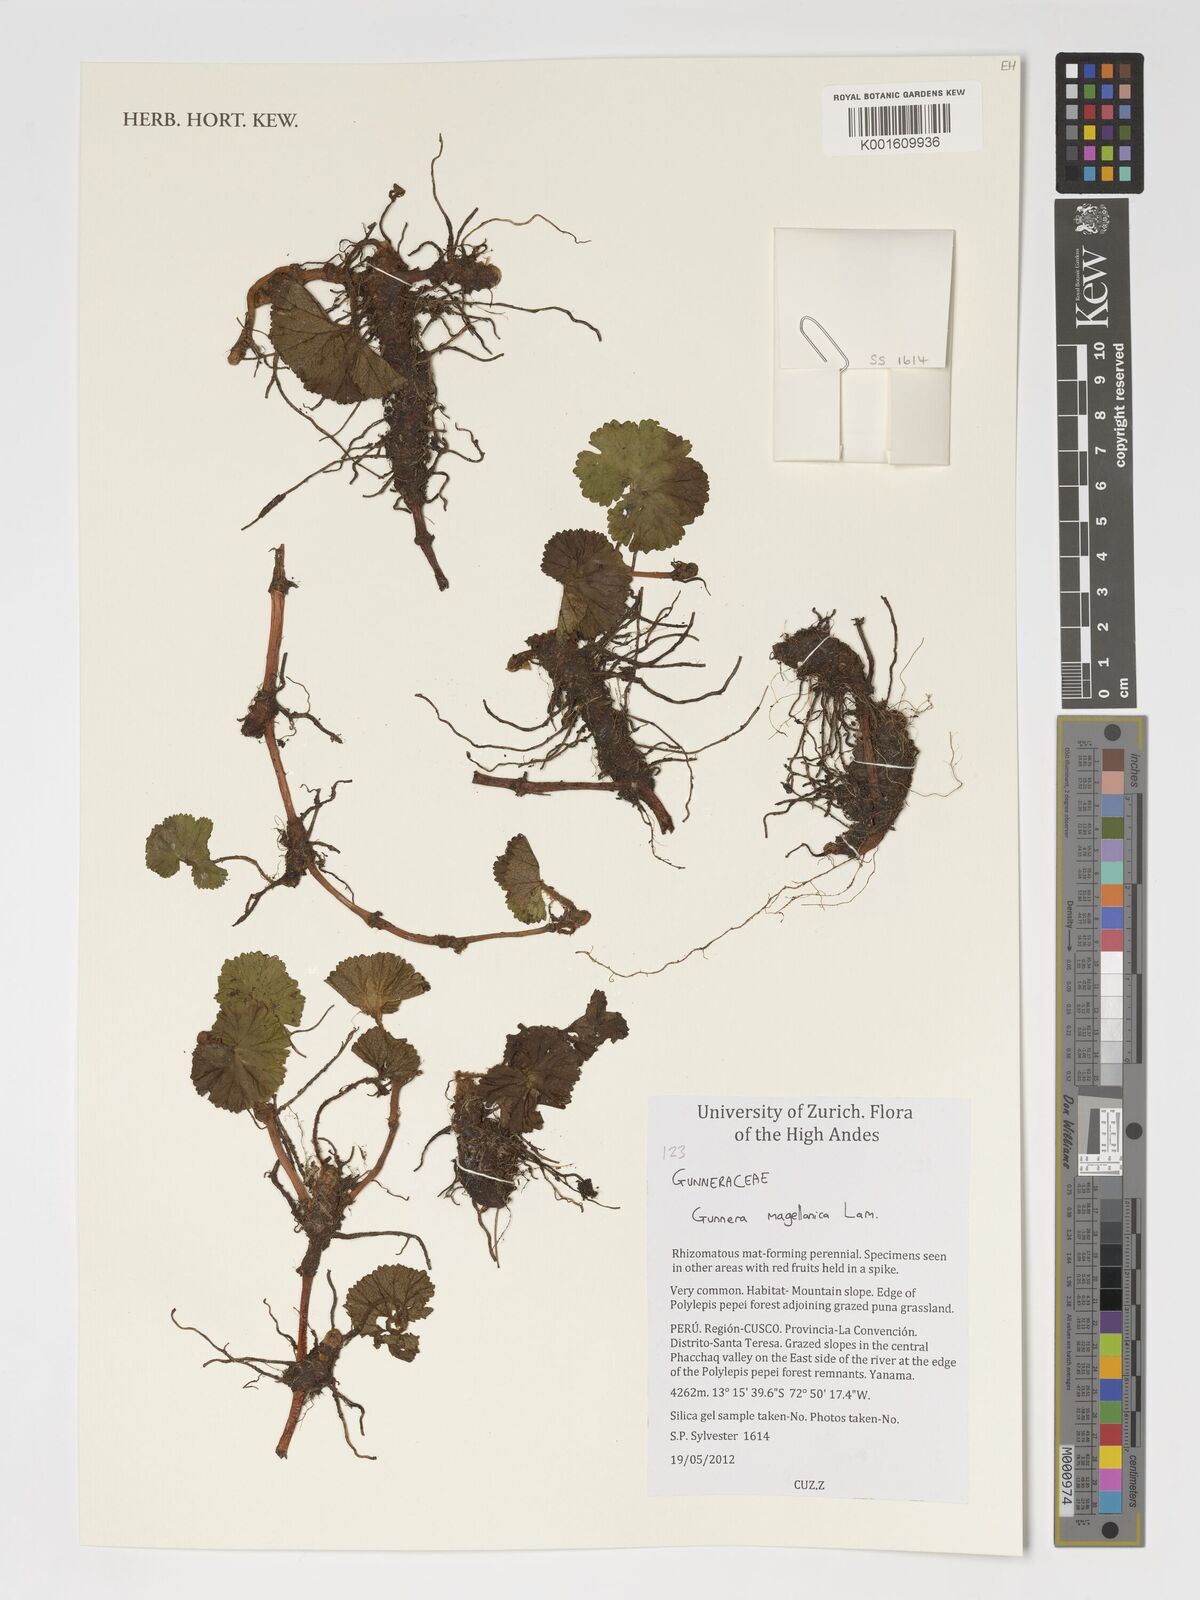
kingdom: Plantae
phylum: Tracheophyta
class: Magnoliopsida
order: Gunnerales
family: Gunneraceae
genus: Gunnera
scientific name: Gunnera magellanica
